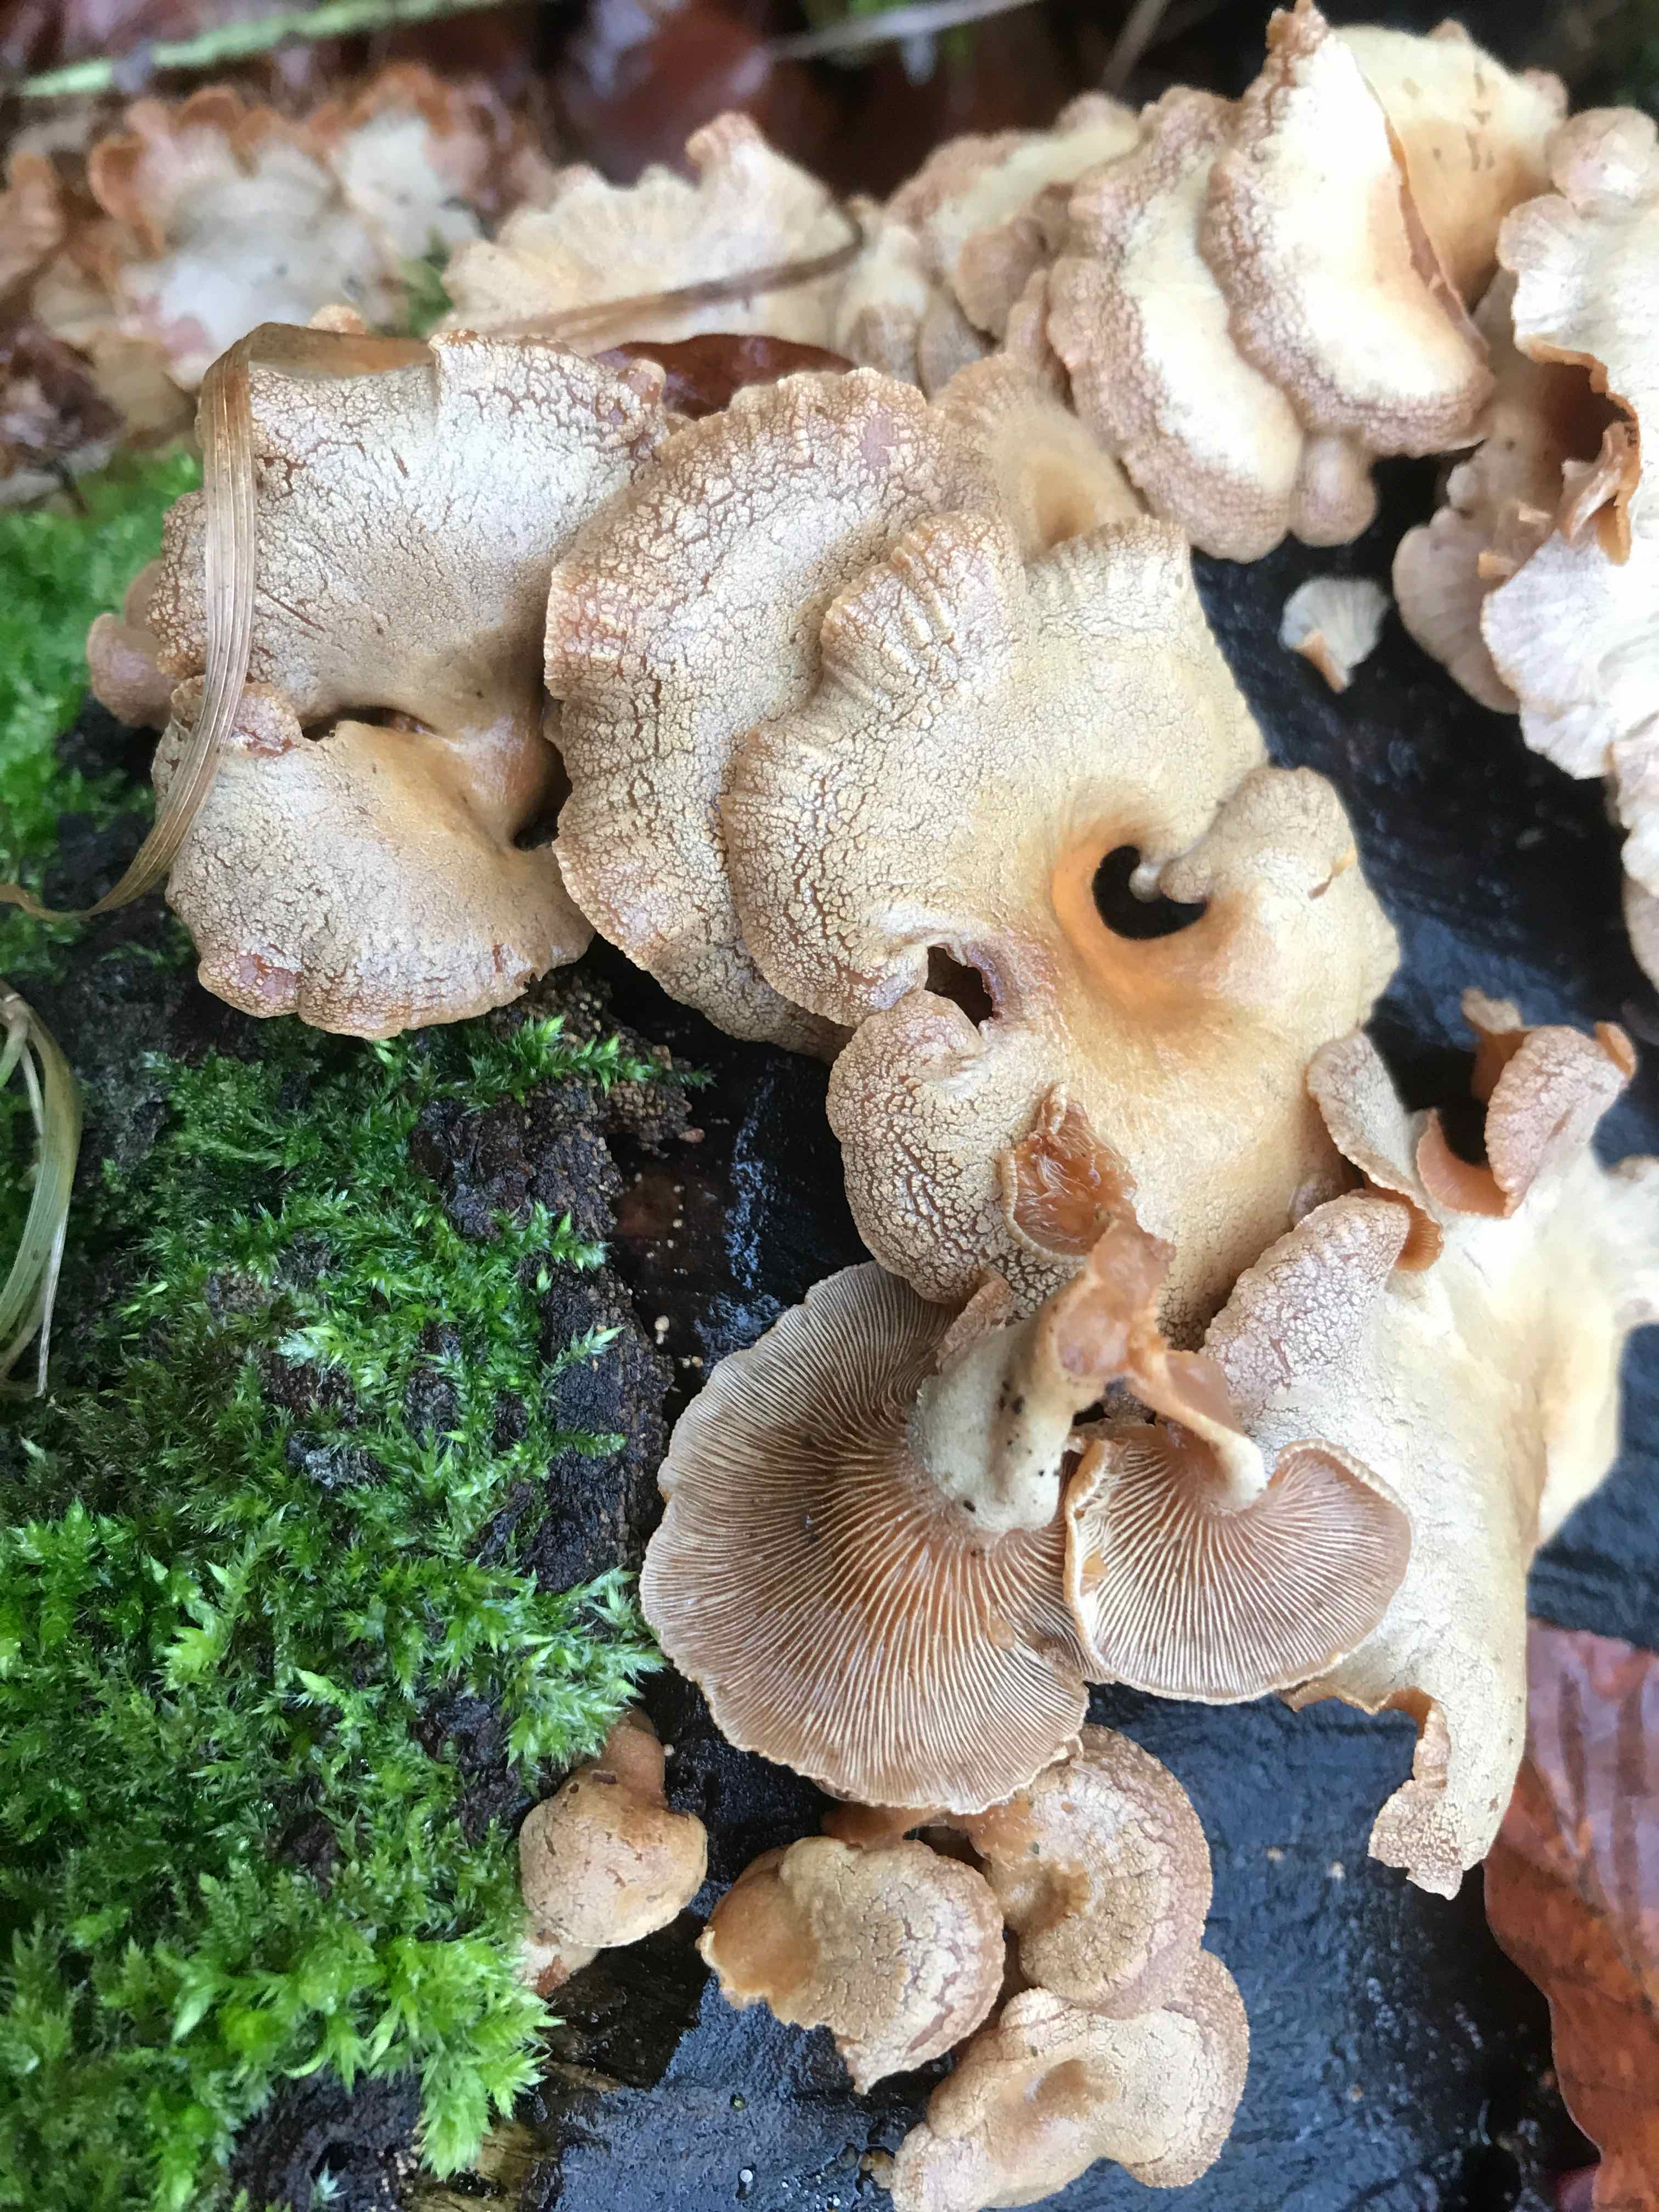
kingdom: Fungi
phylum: Basidiomycota
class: Agaricomycetes
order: Agaricales
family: Mycenaceae
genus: Panellus
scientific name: Panellus stipticus
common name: kliddet epaulethat
